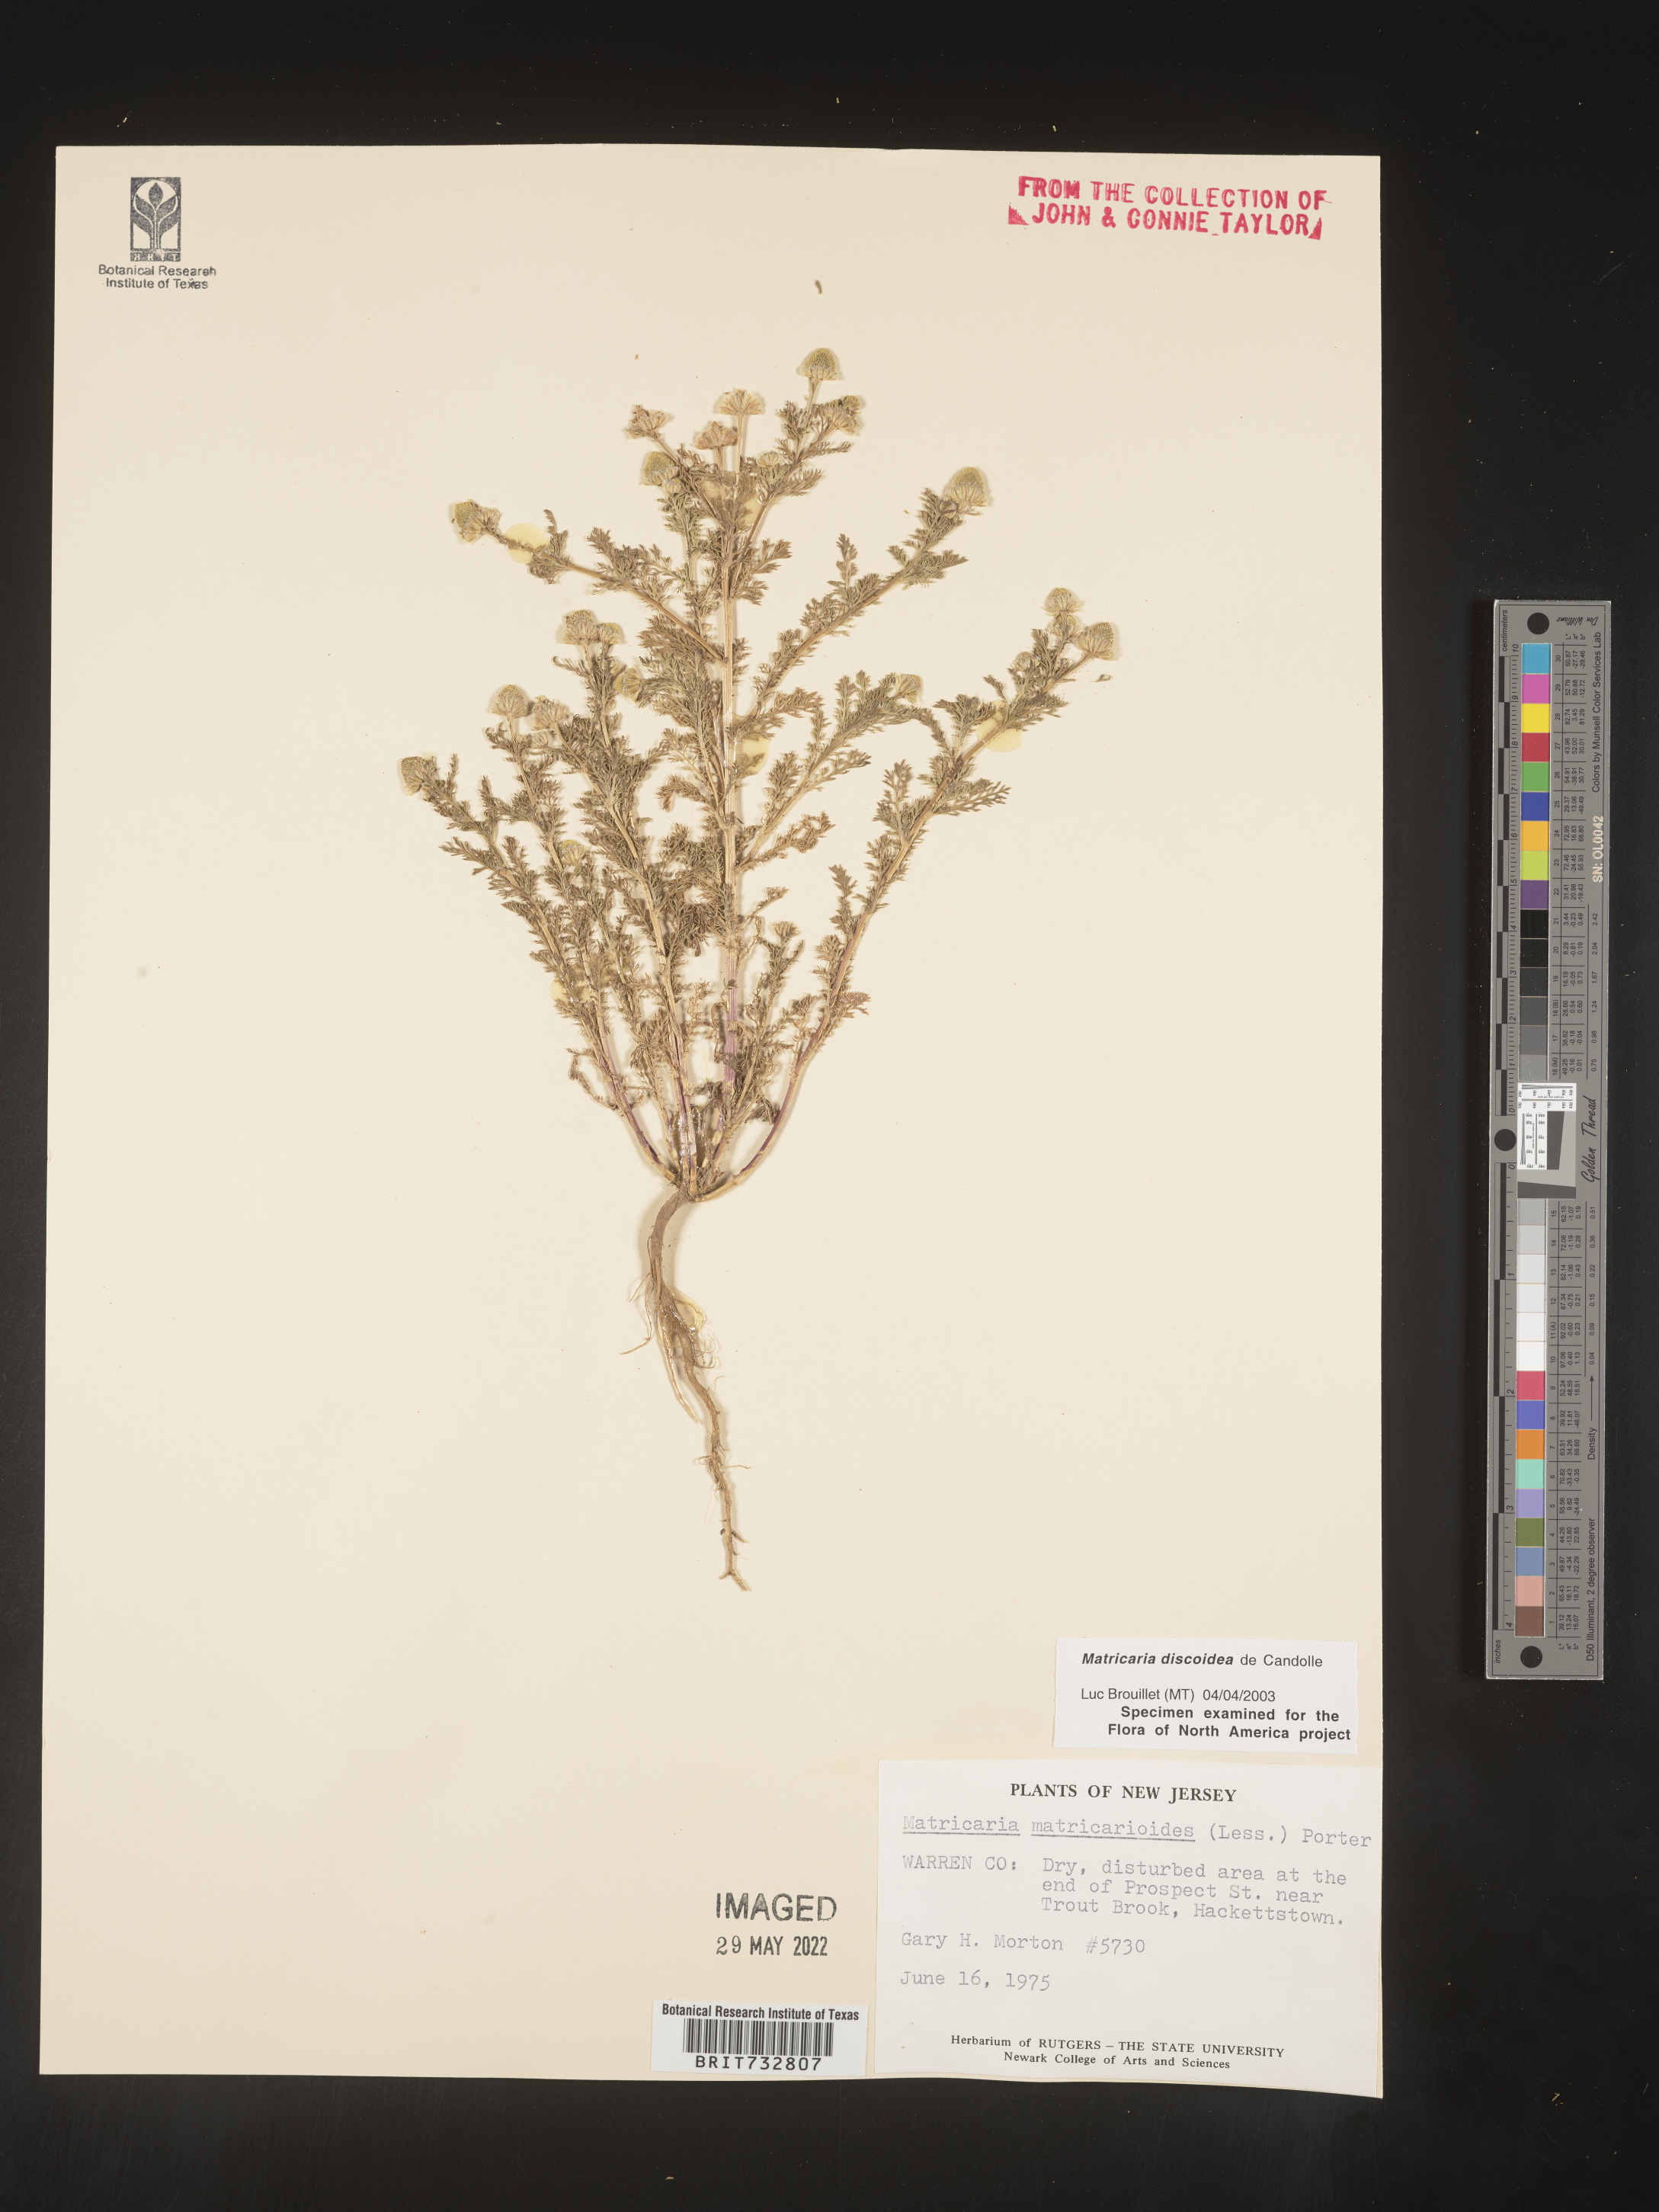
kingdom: Plantae
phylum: Tracheophyta
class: Magnoliopsida
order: Asterales
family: Asteraceae
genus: Matricaria
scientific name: Matricaria discoidea
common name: Disc mayweed
